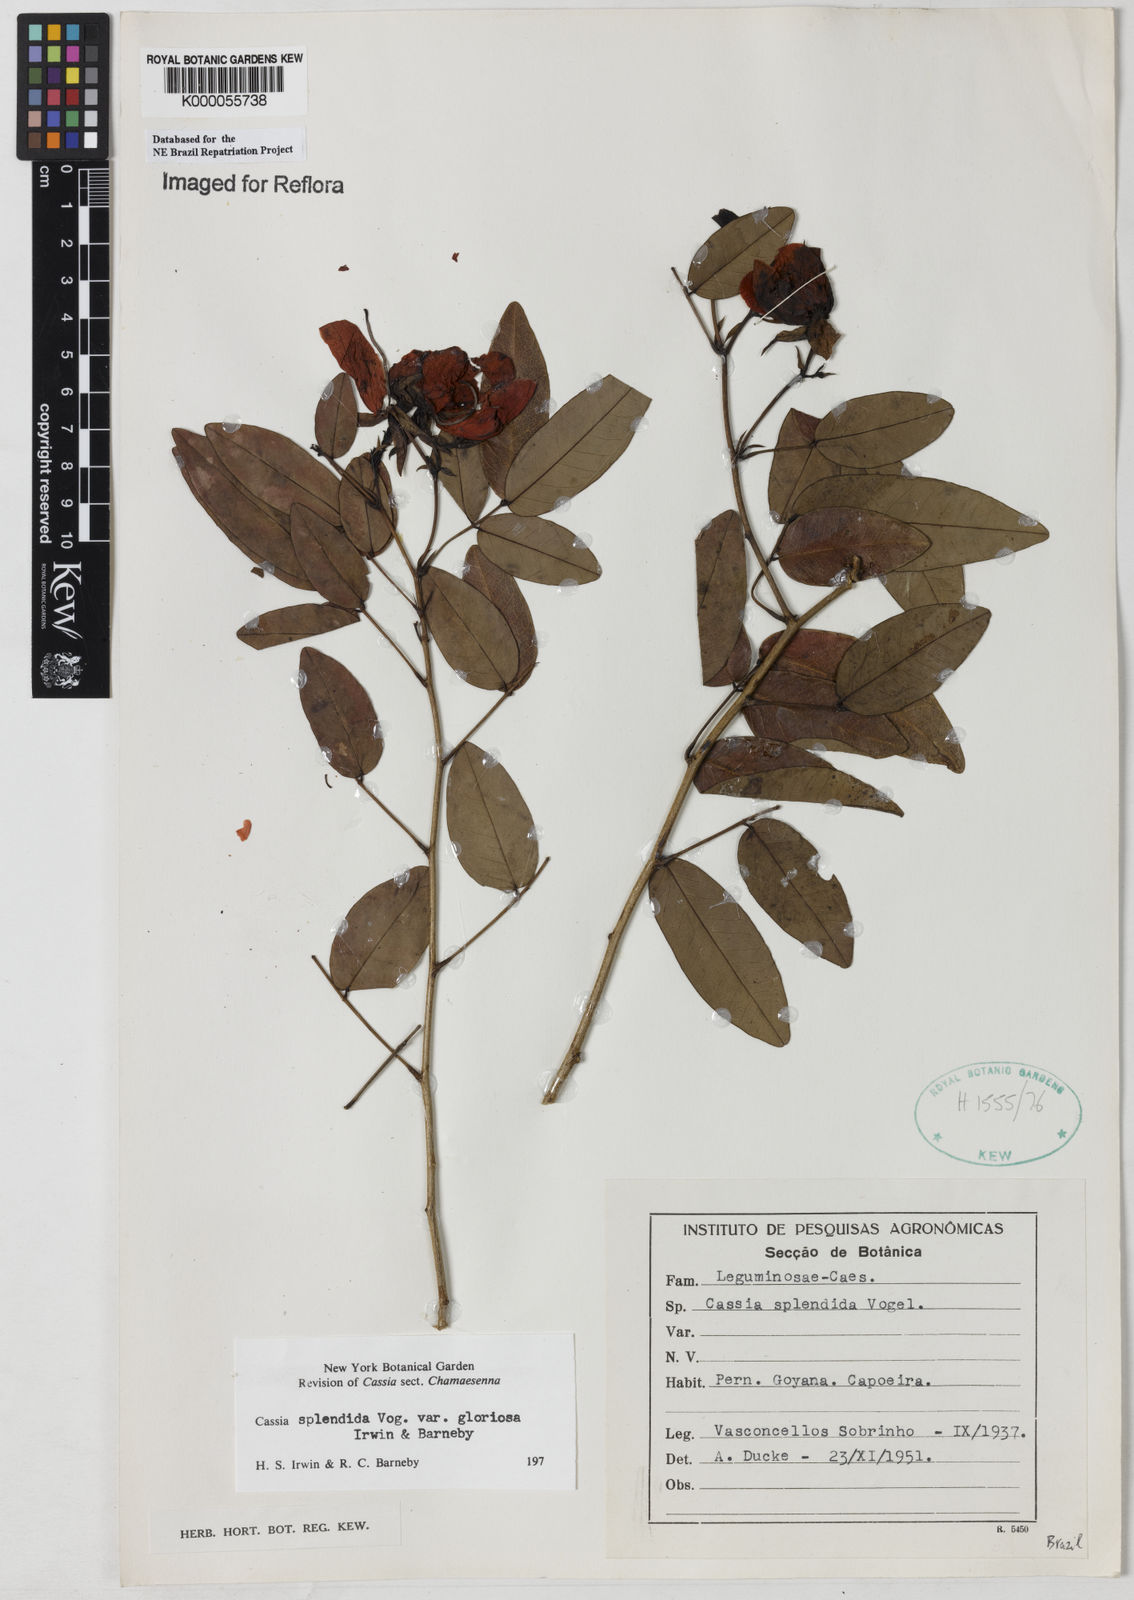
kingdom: Plantae
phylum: Tracheophyta
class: Magnoliopsida
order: Fabales
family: Fabaceae
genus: Senna
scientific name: Senna splendida
